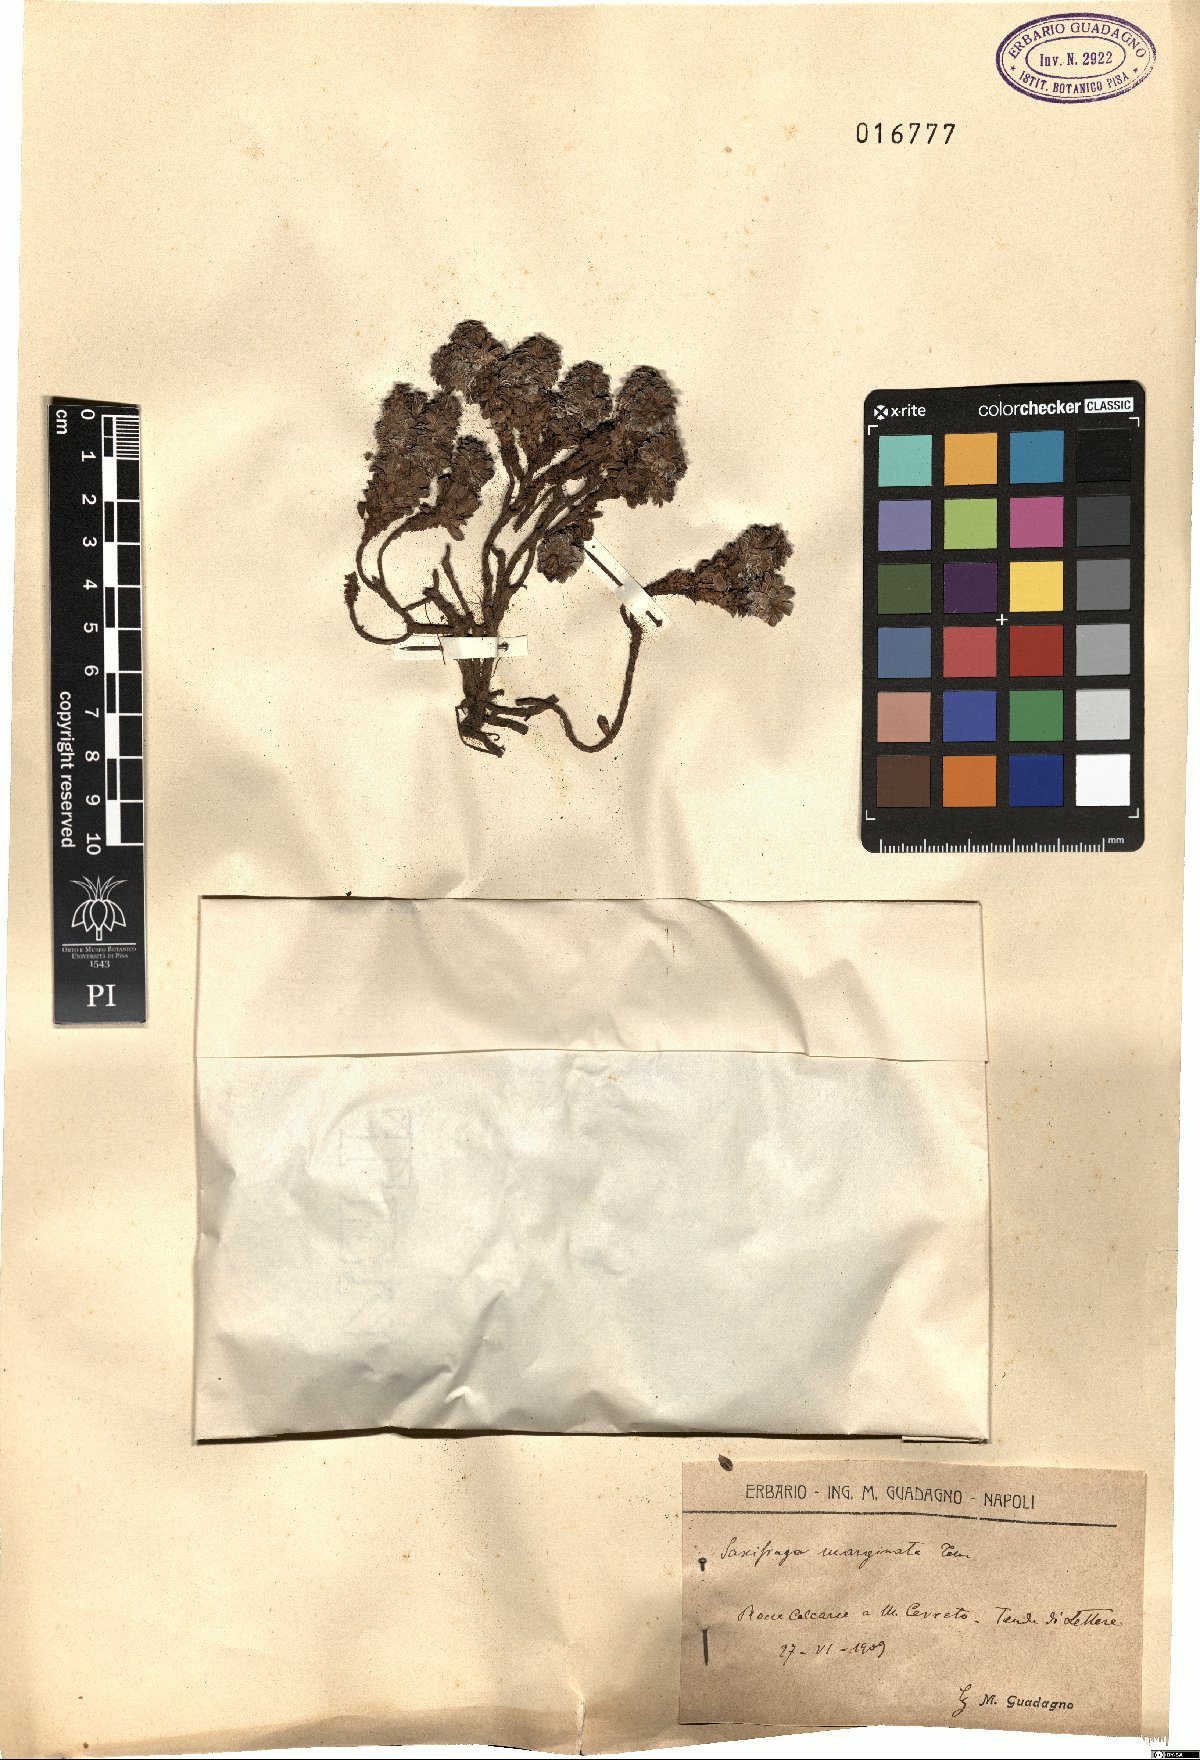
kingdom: Plantae
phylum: Tracheophyta
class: Magnoliopsida
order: Saxifragales
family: Saxifragaceae
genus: Saxifraga
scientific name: Saxifraga marginata
